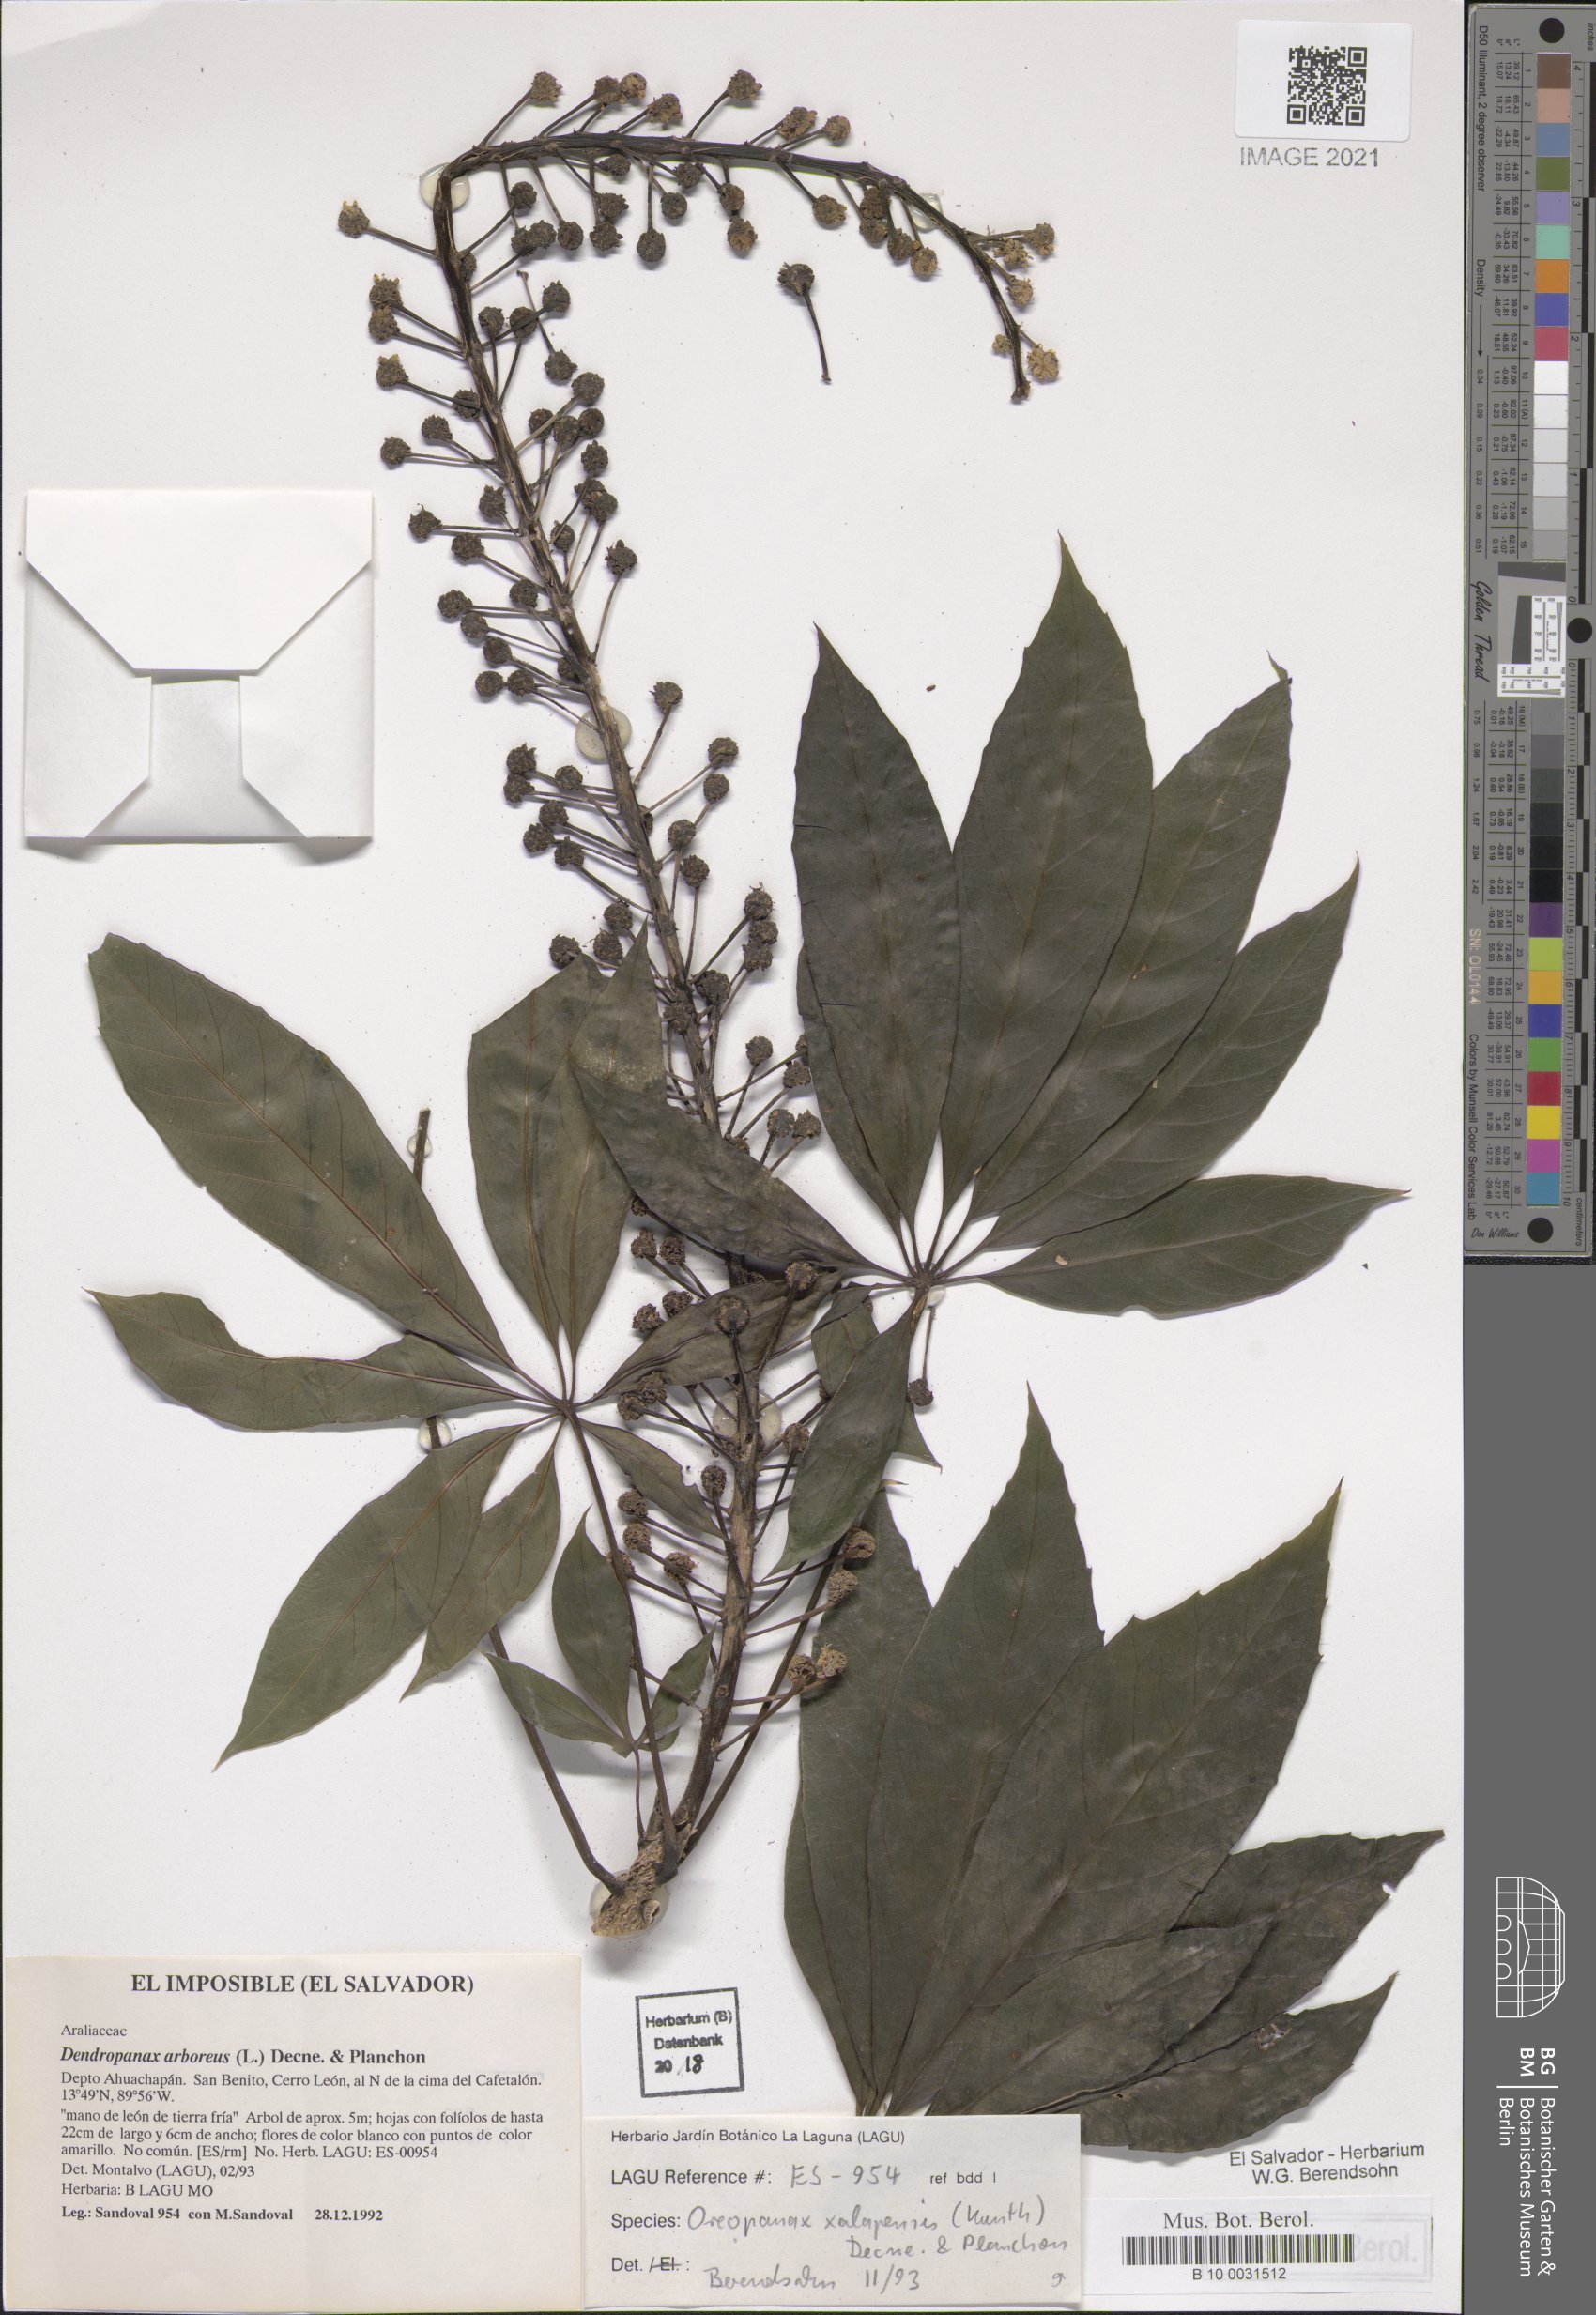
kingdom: Plantae
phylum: Tracheophyta
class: Magnoliopsida
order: Apiales
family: Araliaceae
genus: Oreopanax
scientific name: Oreopanax xalapensis
